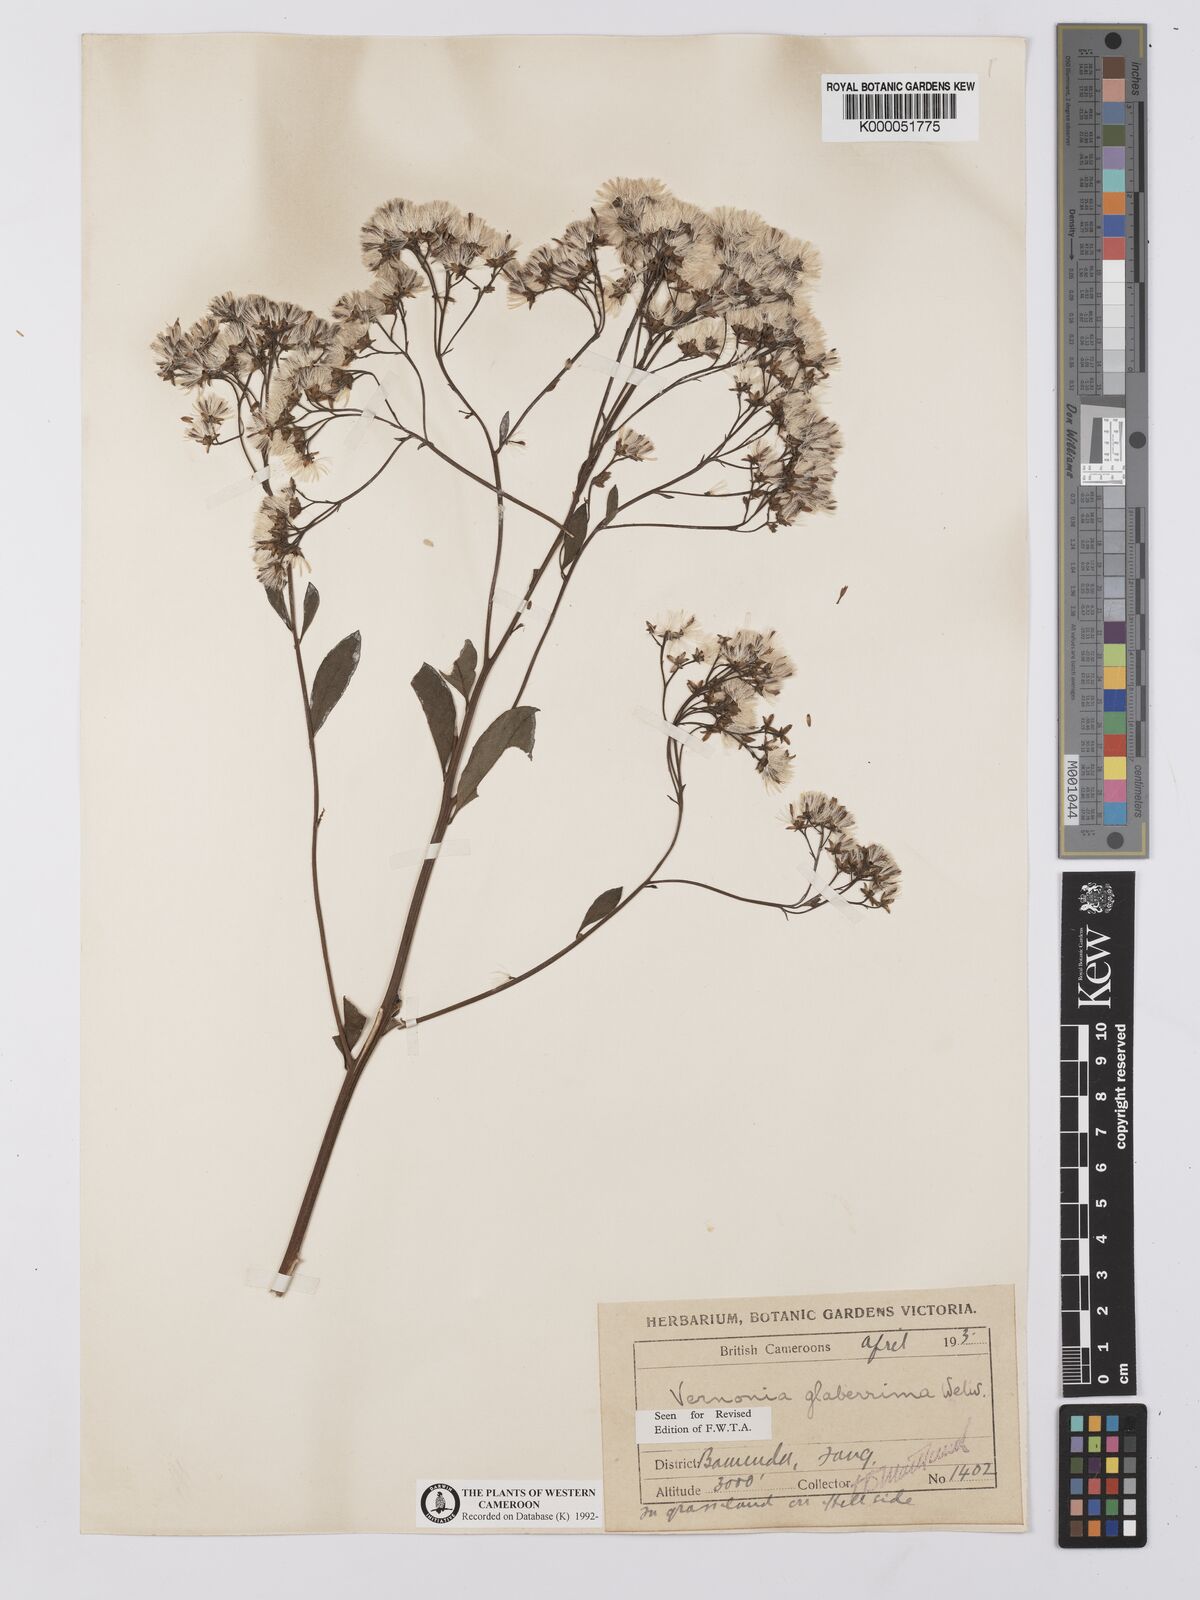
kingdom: Plantae
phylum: Tracheophyta
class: Magnoliopsida
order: Asterales
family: Asteraceae
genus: Vernonia
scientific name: Vernonia
